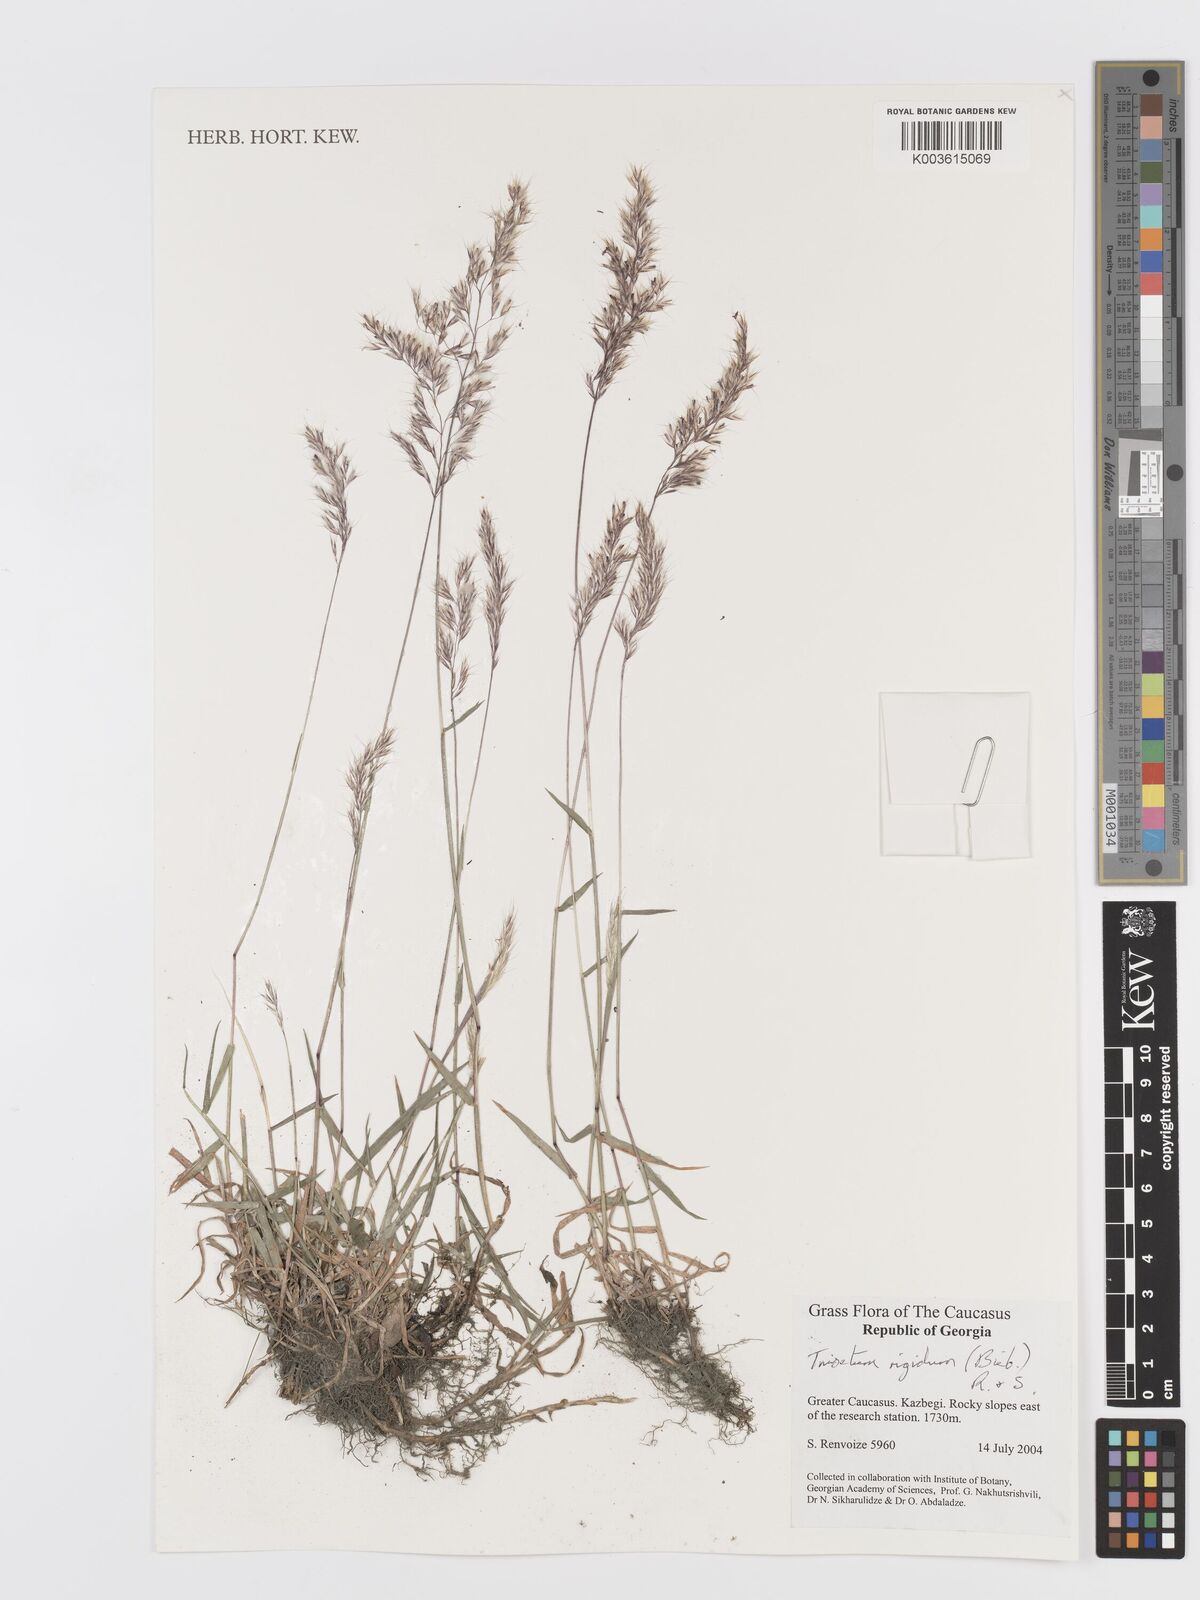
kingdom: Plantae
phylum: Tracheophyta
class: Liliopsida
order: Poales
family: Poaceae
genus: Trisetum
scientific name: Trisetum rigidum
